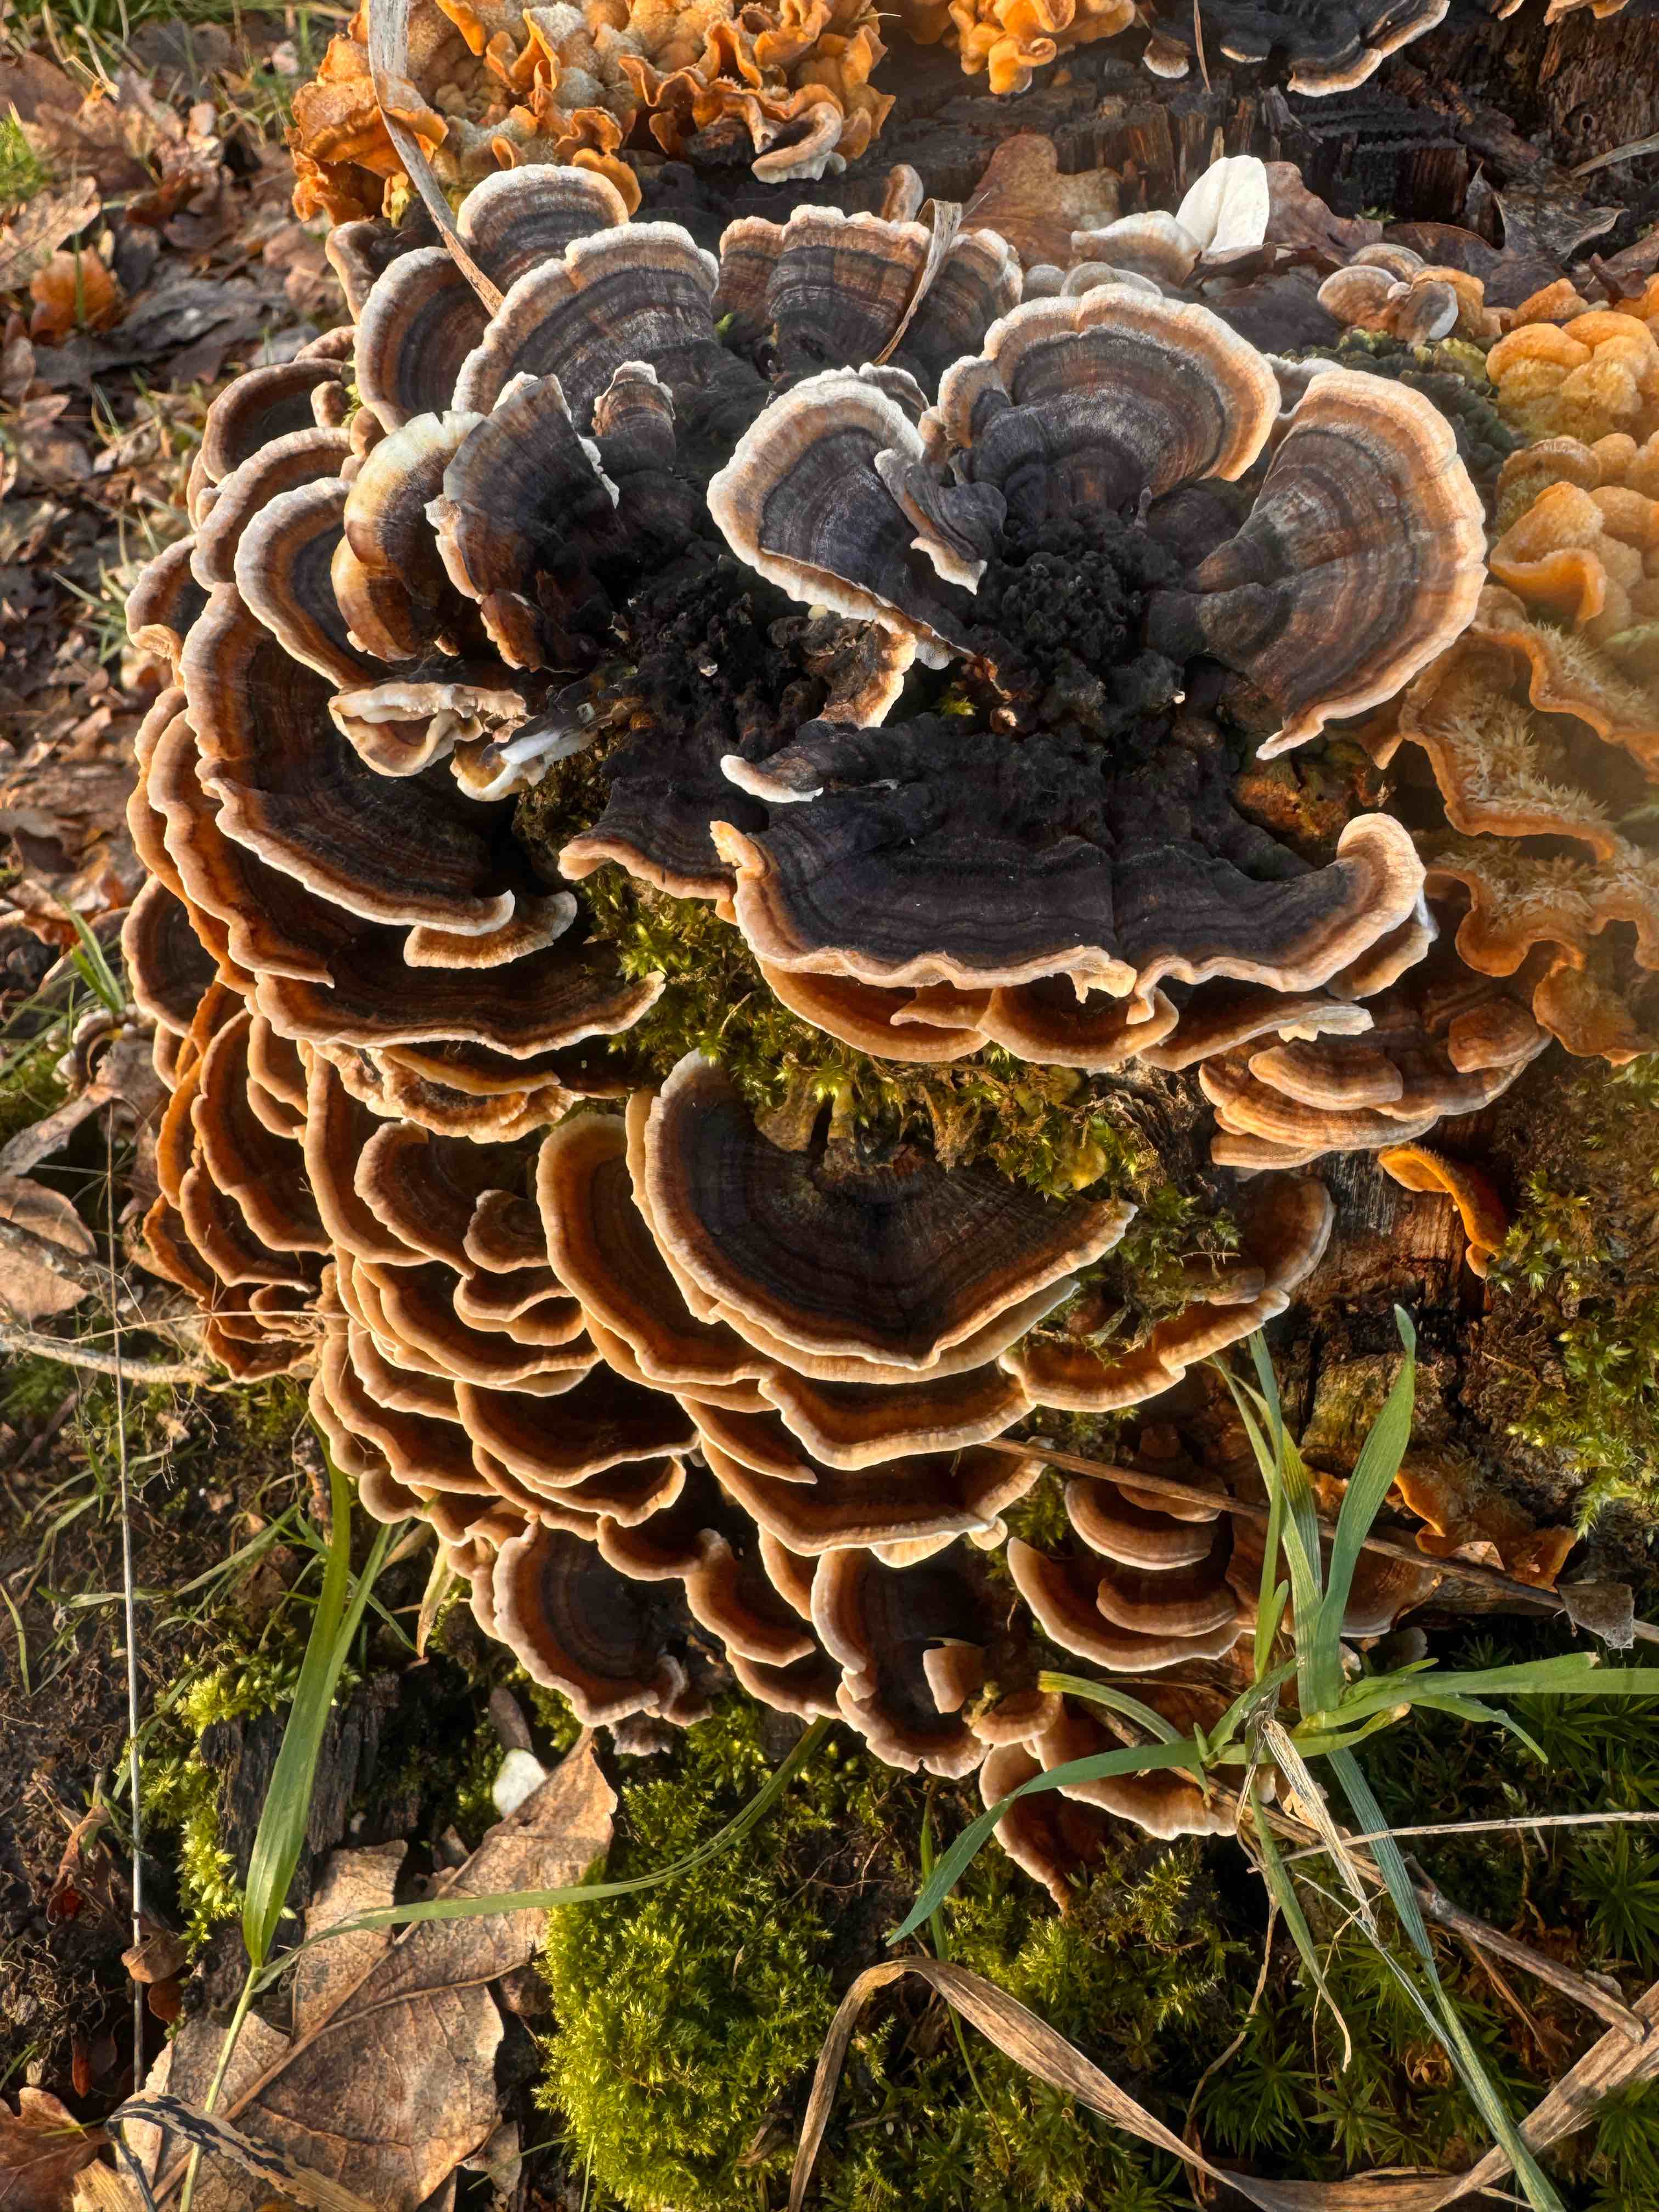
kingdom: Fungi
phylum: Basidiomycota
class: Agaricomycetes
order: Polyporales
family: Polyporaceae
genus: Trametes
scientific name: Trametes versicolor
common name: broget læderporesvamp
